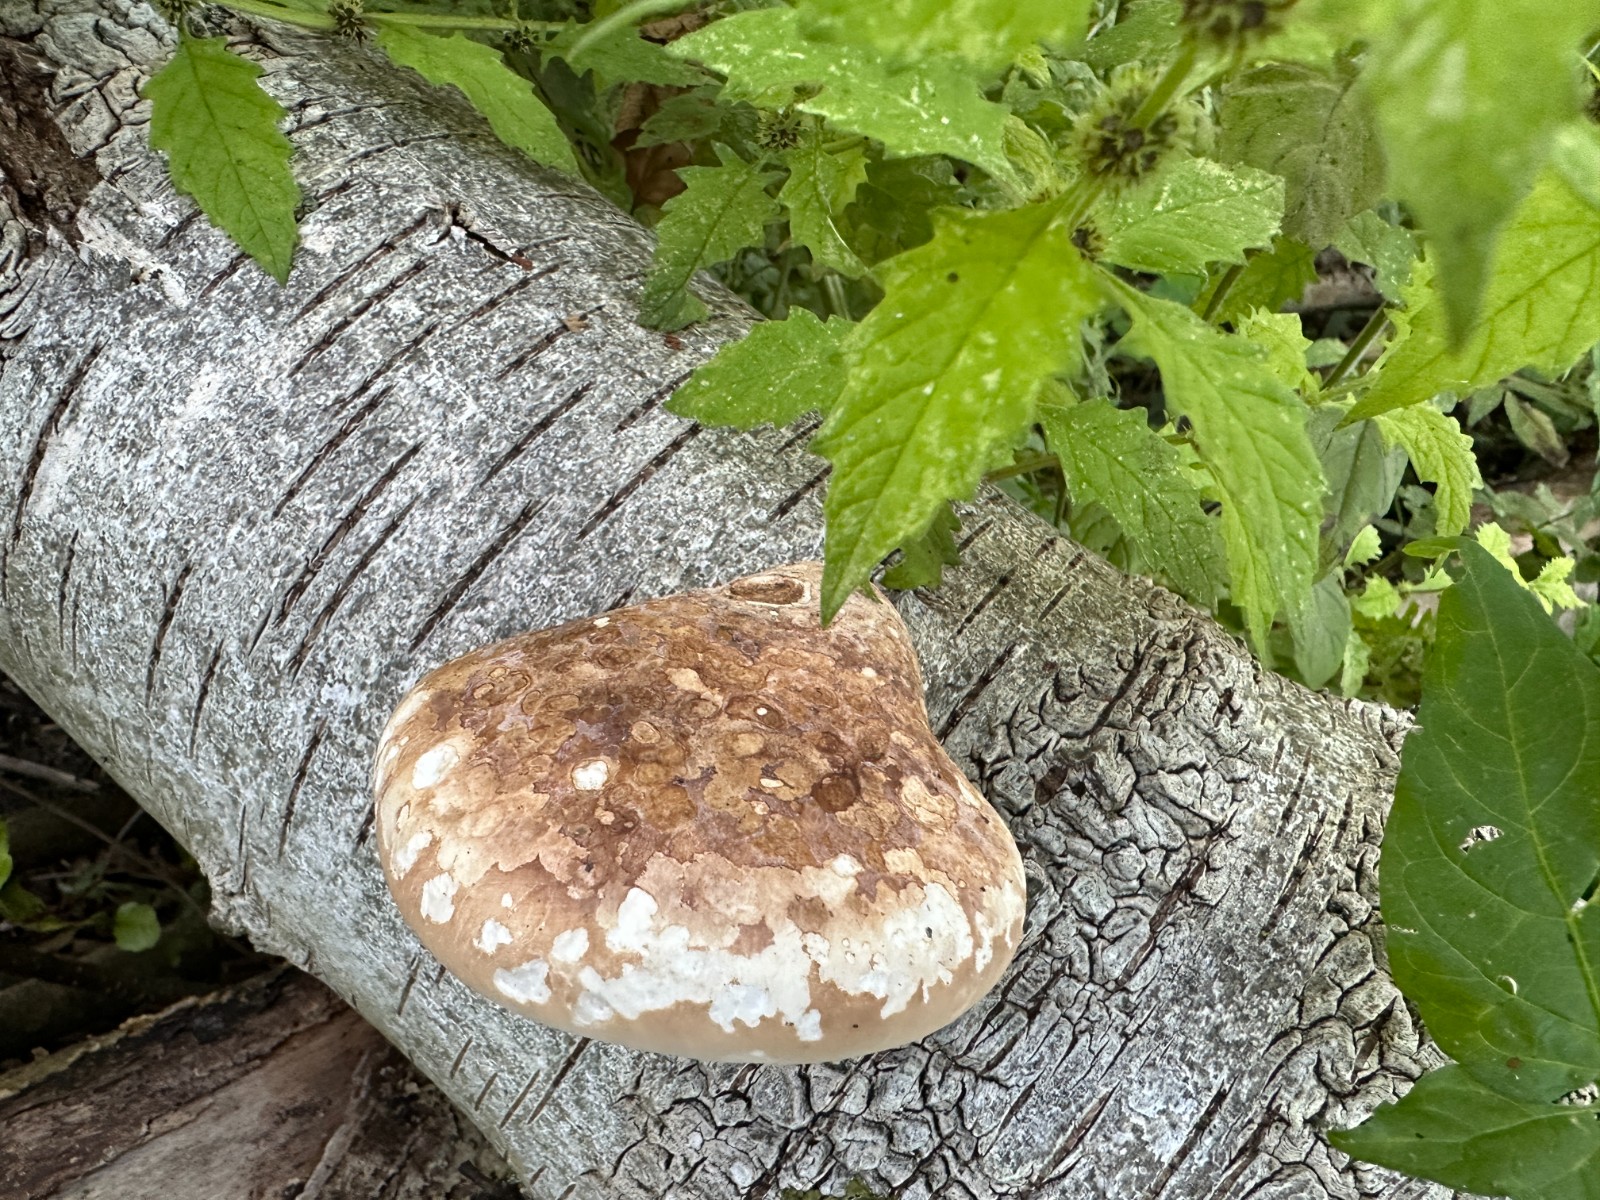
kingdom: Fungi
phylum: Basidiomycota
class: Agaricomycetes
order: Polyporales
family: Fomitopsidaceae
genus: Fomitopsis
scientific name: Fomitopsis betulina
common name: birkeporesvamp
